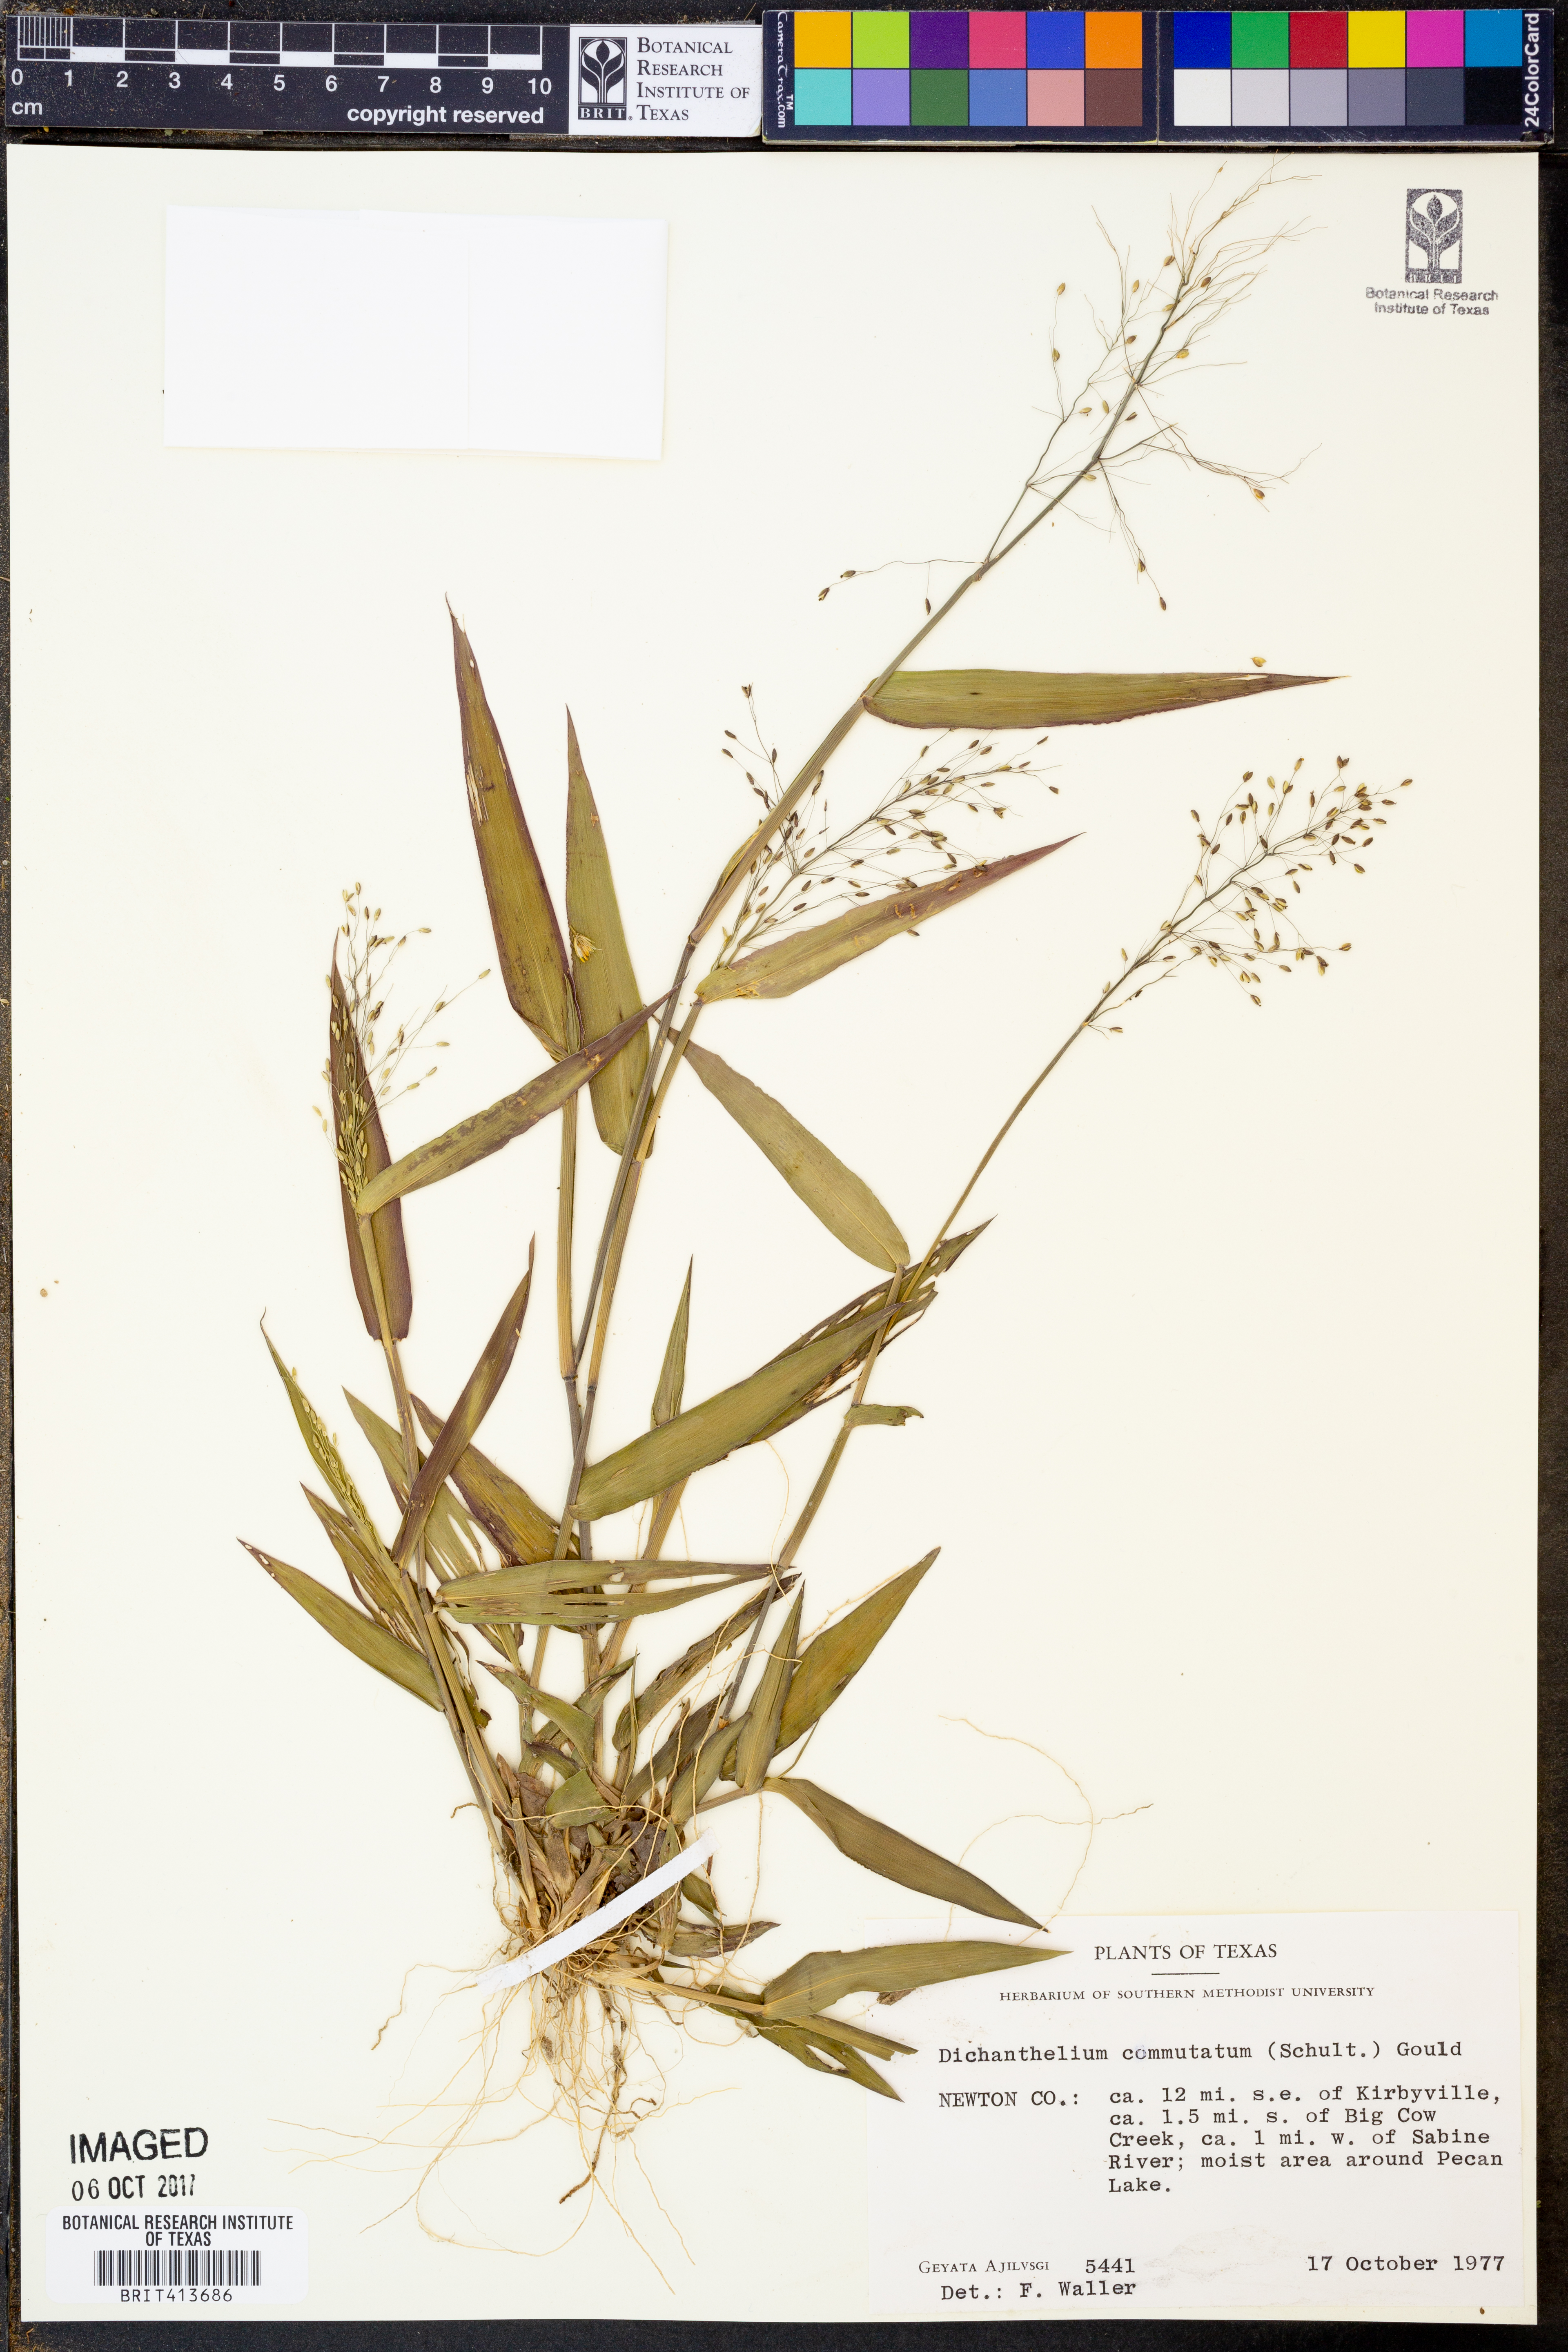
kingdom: Plantae
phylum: Tracheophyta
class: Liliopsida
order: Poales
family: Poaceae
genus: Dichanthelium
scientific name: Dichanthelium commutatum
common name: Variable witchgrass
